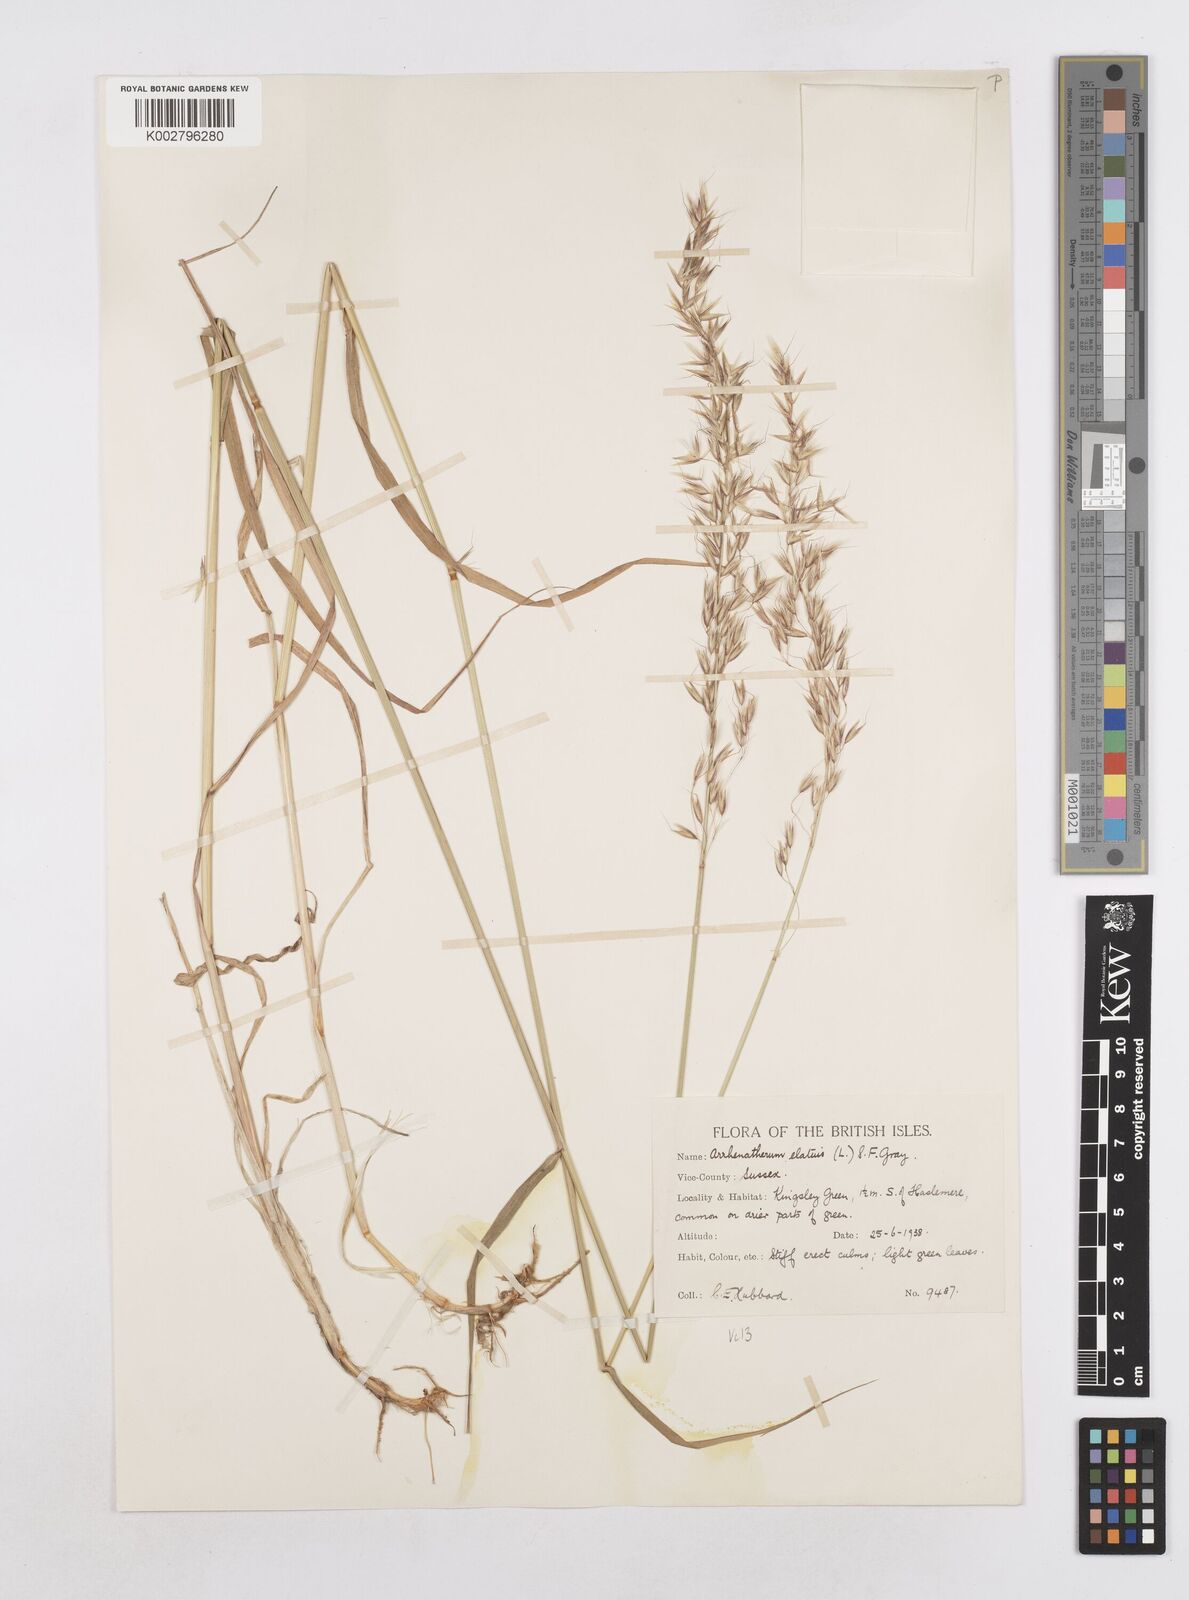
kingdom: Plantae
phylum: Tracheophyta
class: Liliopsida
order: Poales
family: Poaceae
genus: Arrhenatherum
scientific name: Arrhenatherum elatius
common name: Tall oatgrass
